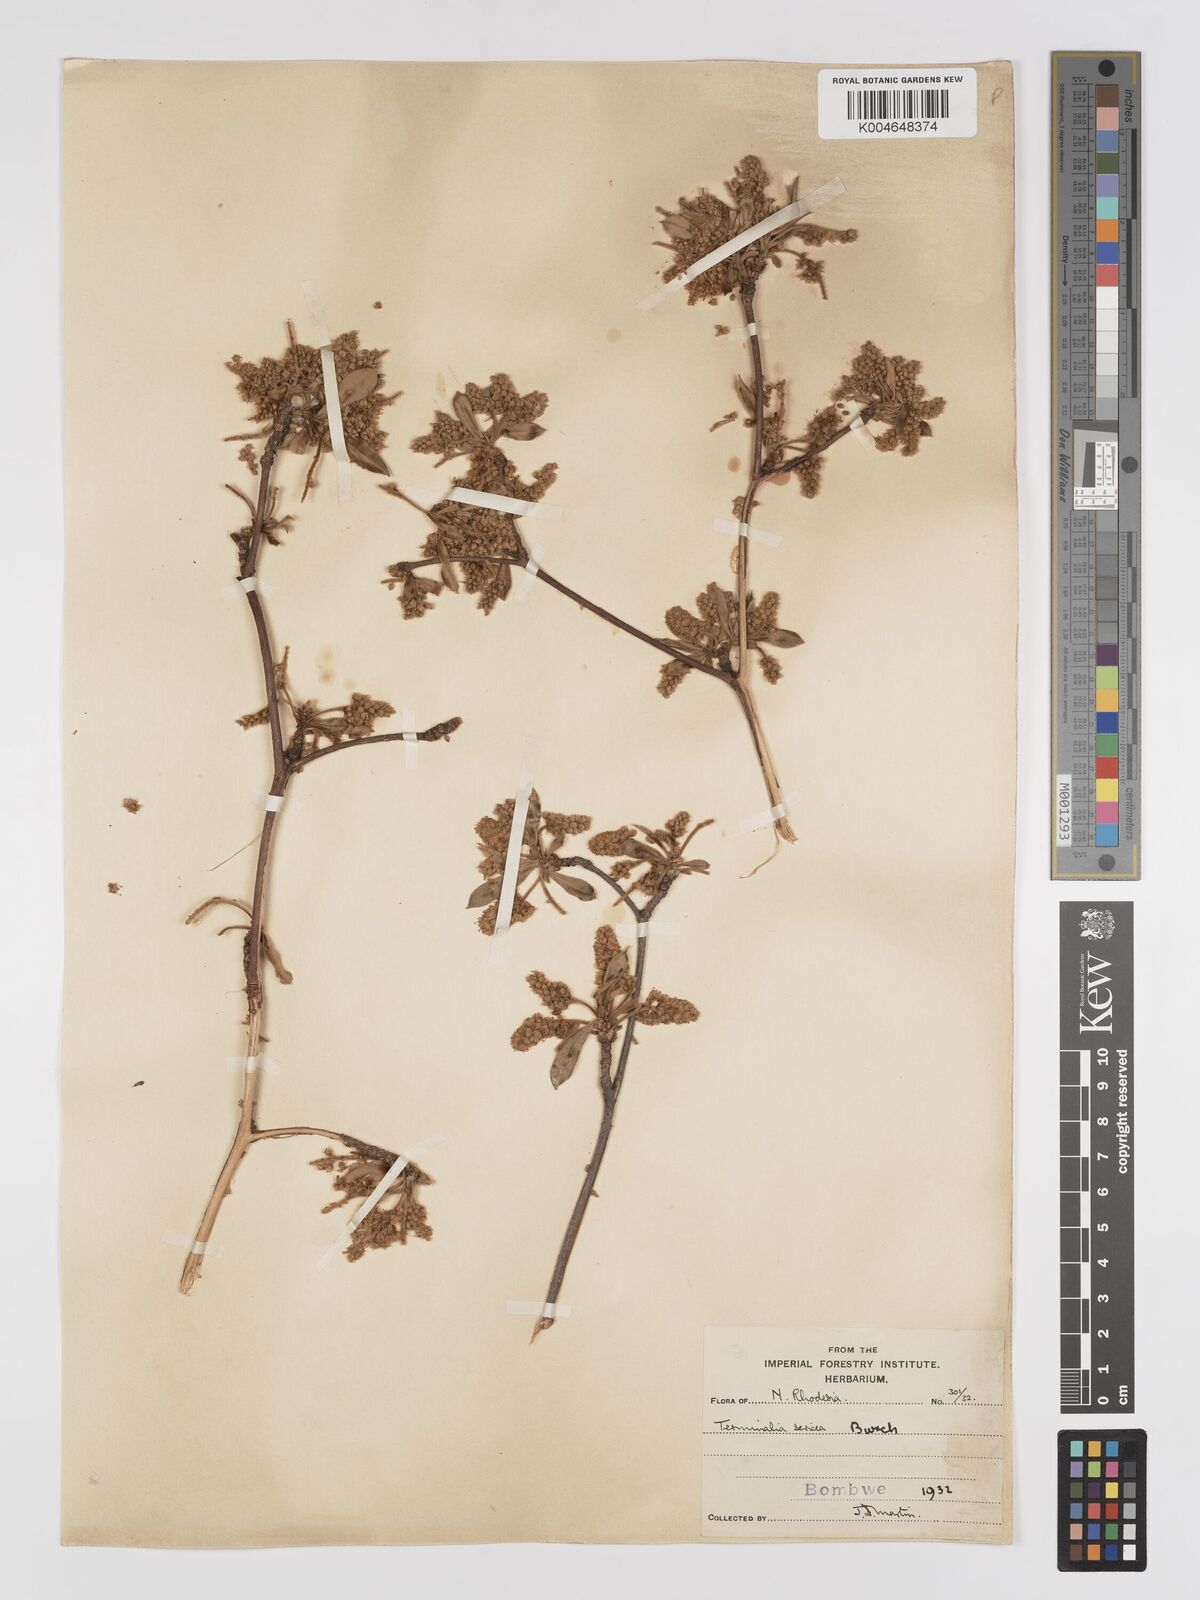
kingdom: Plantae
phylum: Tracheophyta
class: Magnoliopsida
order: Myrtales
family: Combretaceae
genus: Terminalia
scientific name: Terminalia
